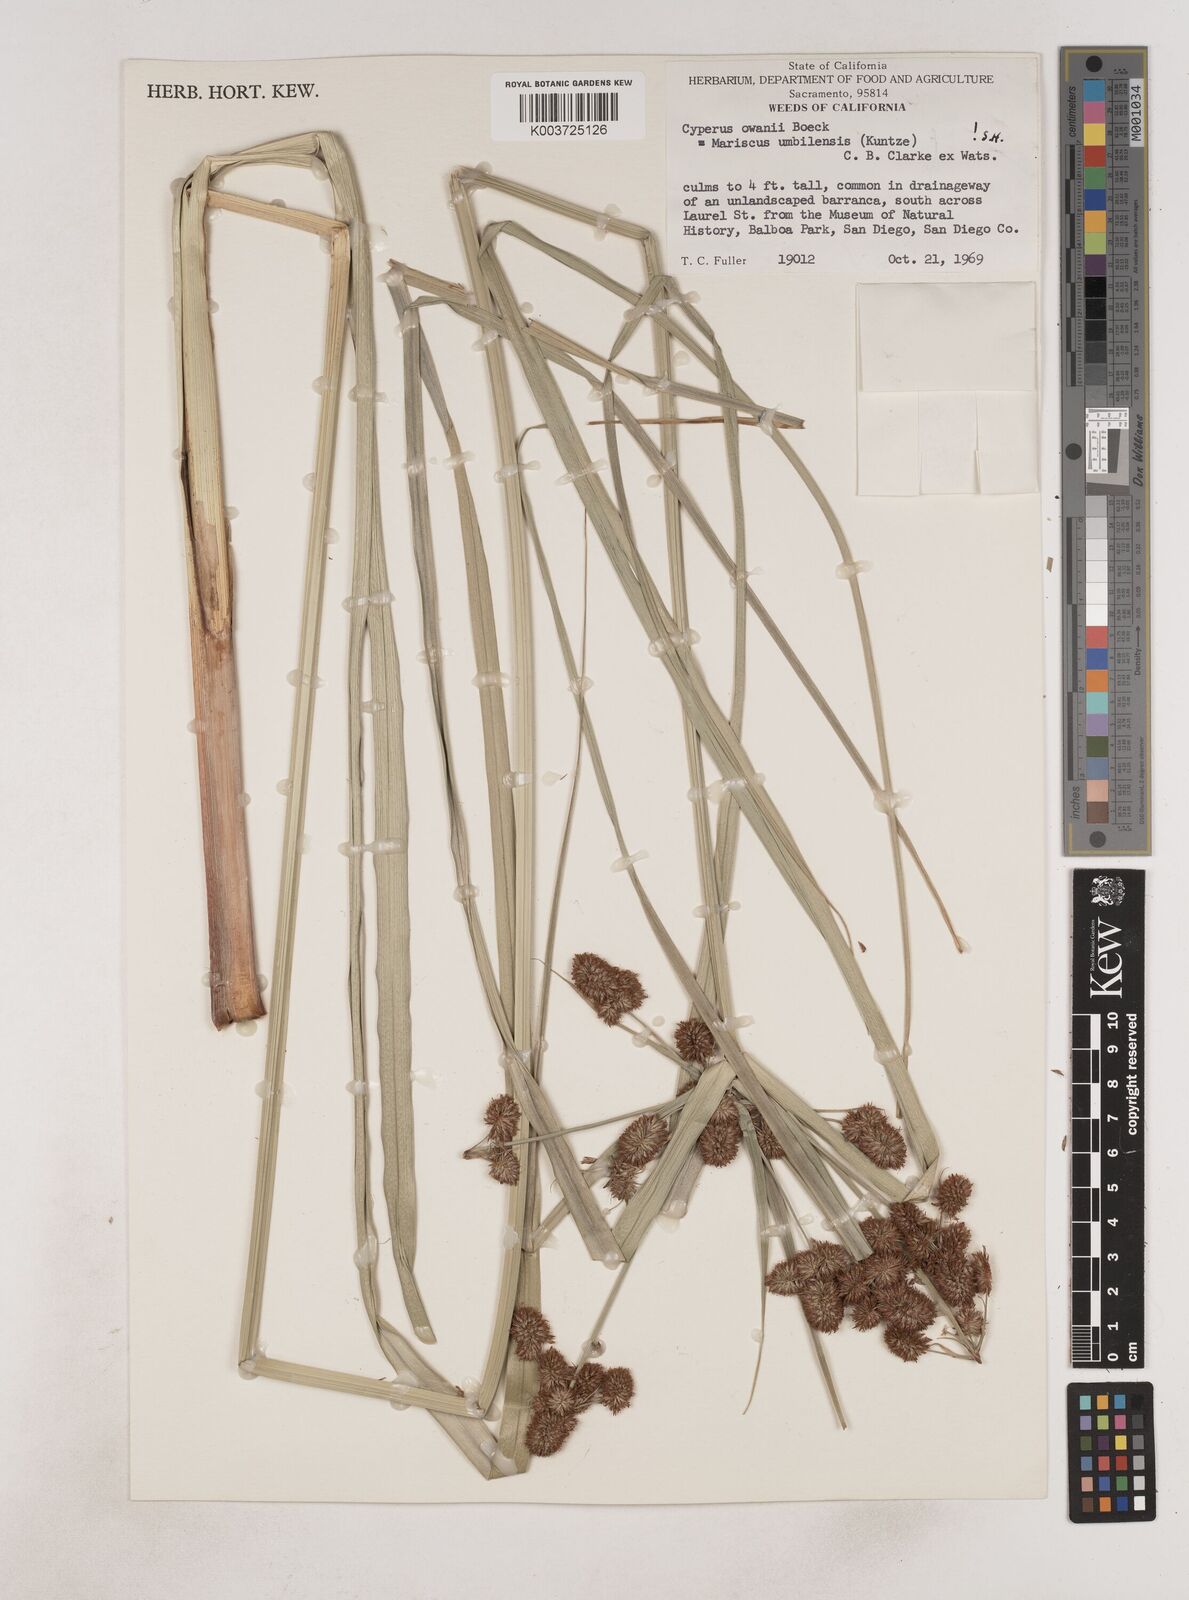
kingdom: Plantae
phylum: Tracheophyta
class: Liliopsida
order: Poales
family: Cyperaceae
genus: Cyperus
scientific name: Cyperus owanii
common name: Owan's flatsedge
